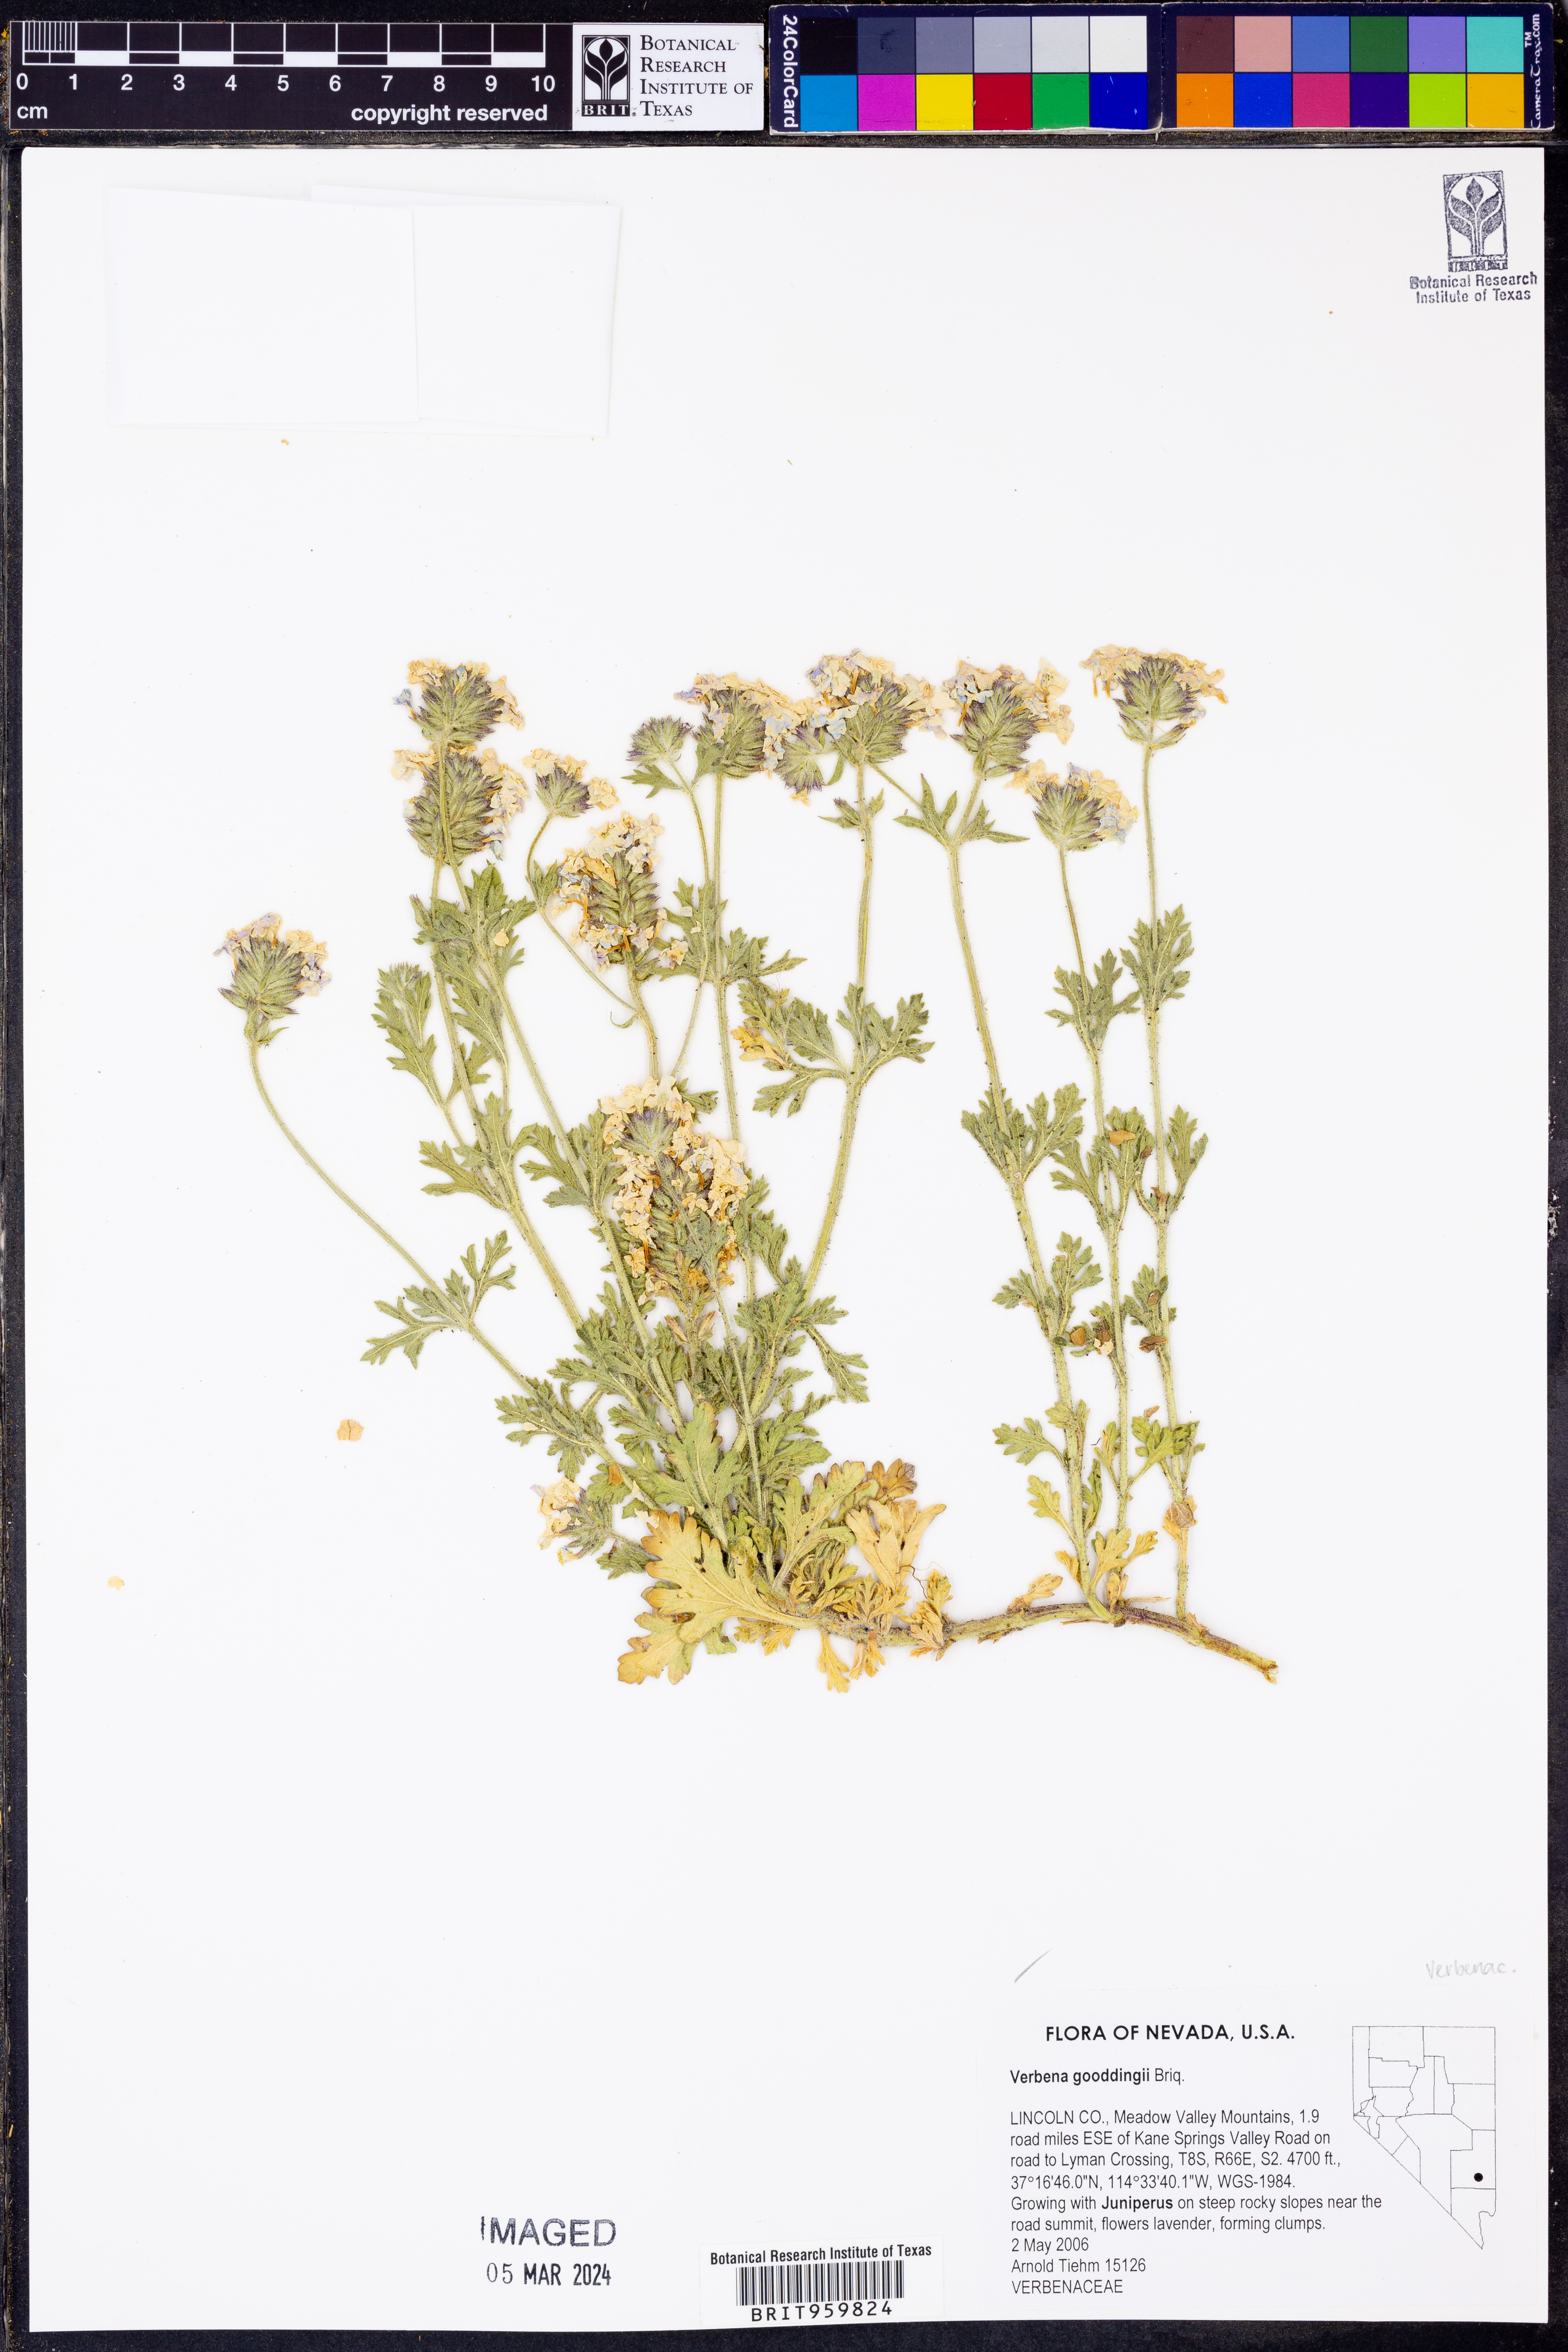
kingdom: Plantae
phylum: Tracheophyta
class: Magnoliopsida
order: Lamiales
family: Verbenaceae
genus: Verbena
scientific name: Verbena gooddingii
